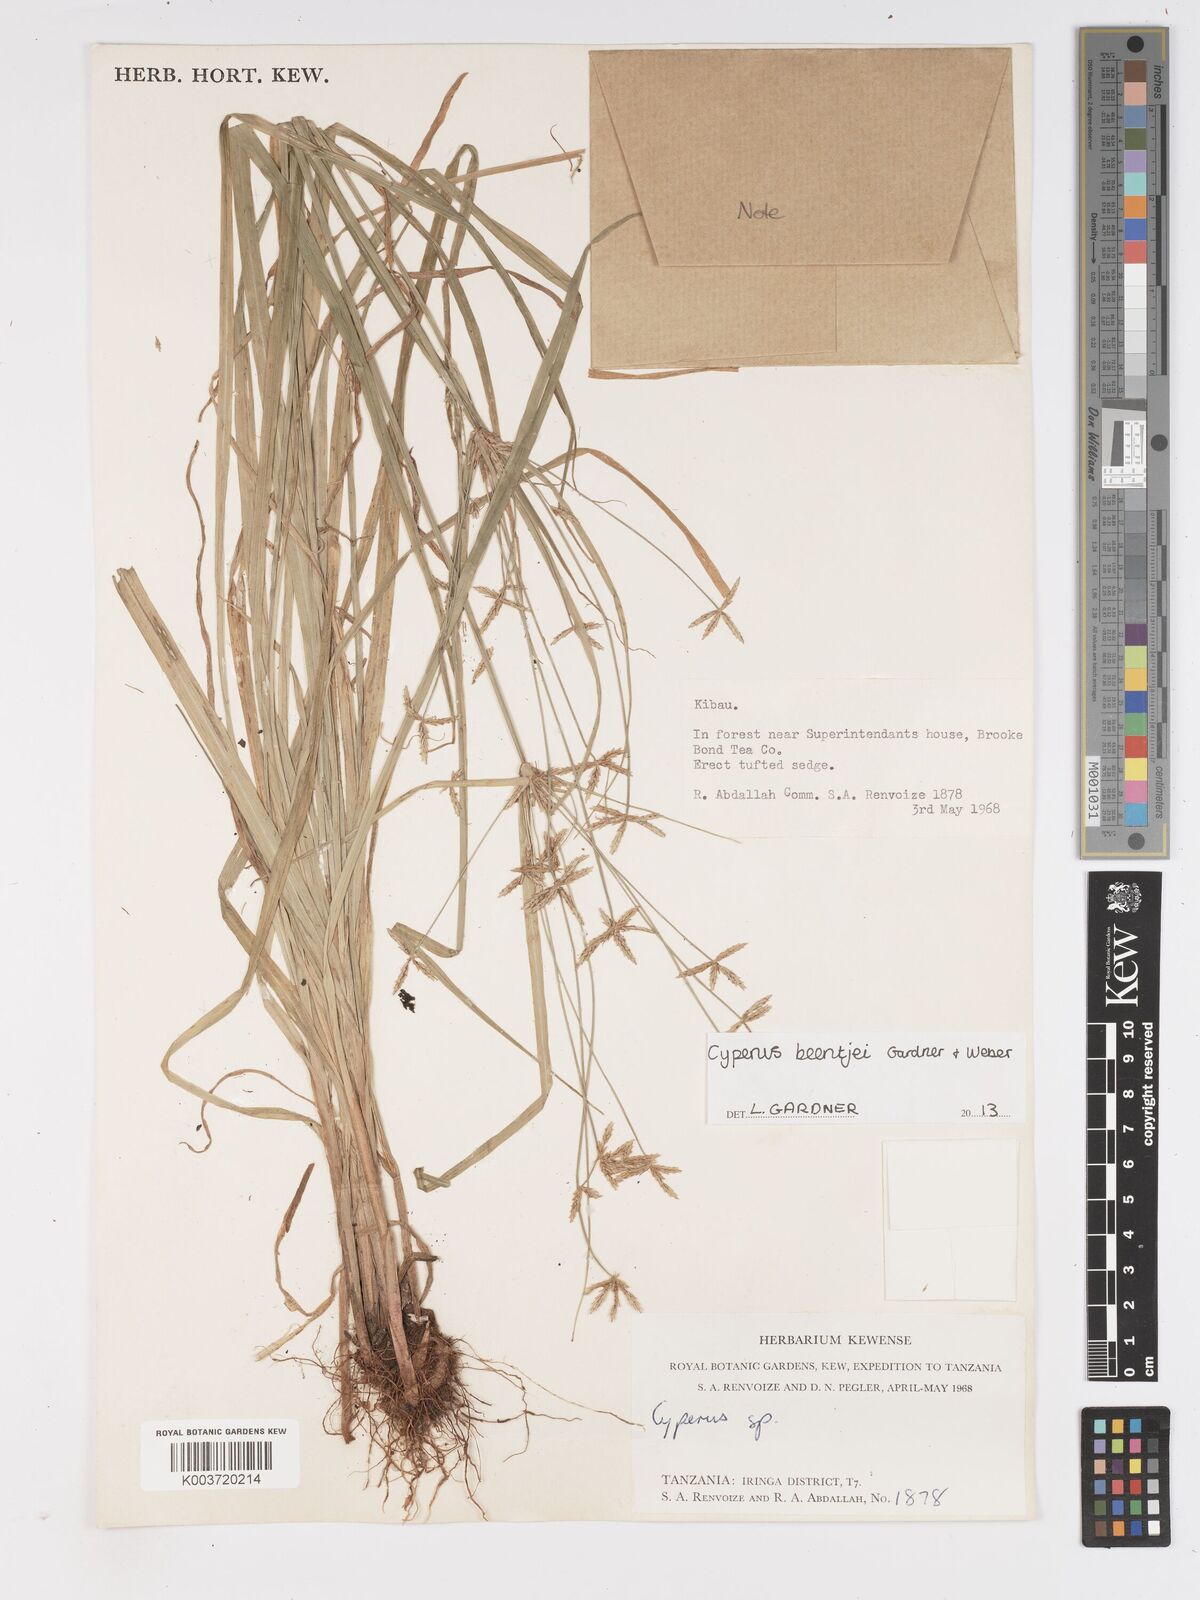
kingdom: Plantae
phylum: Tracheophyta
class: Liliopsida
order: Poales
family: Cyperaceae
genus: Cyperus
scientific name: Cyperus beentjei
